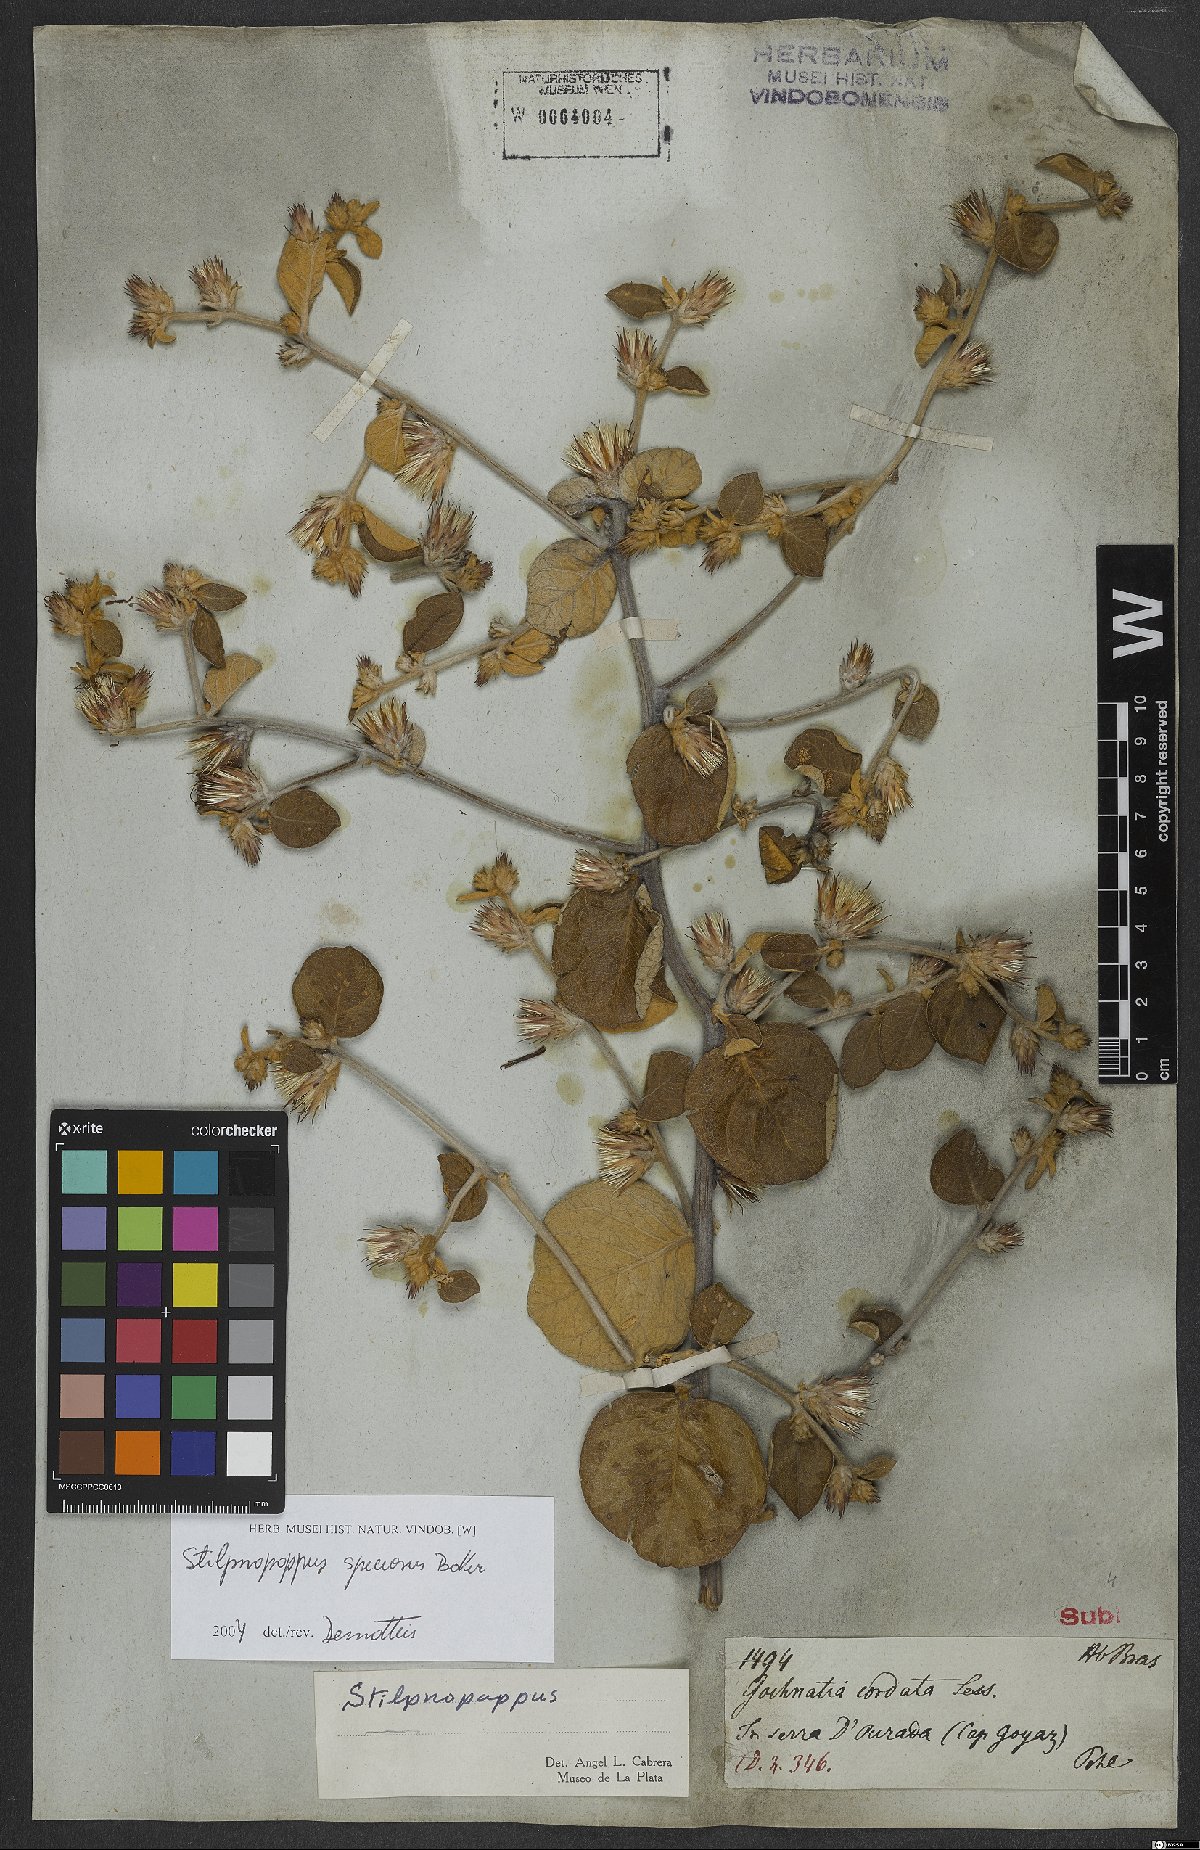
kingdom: Plantae
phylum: Tracheophyta
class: Magnoliopsida
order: Asterales
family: Asteraceae
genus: Stilpnopappus
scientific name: Stilpnopappus speciosus
